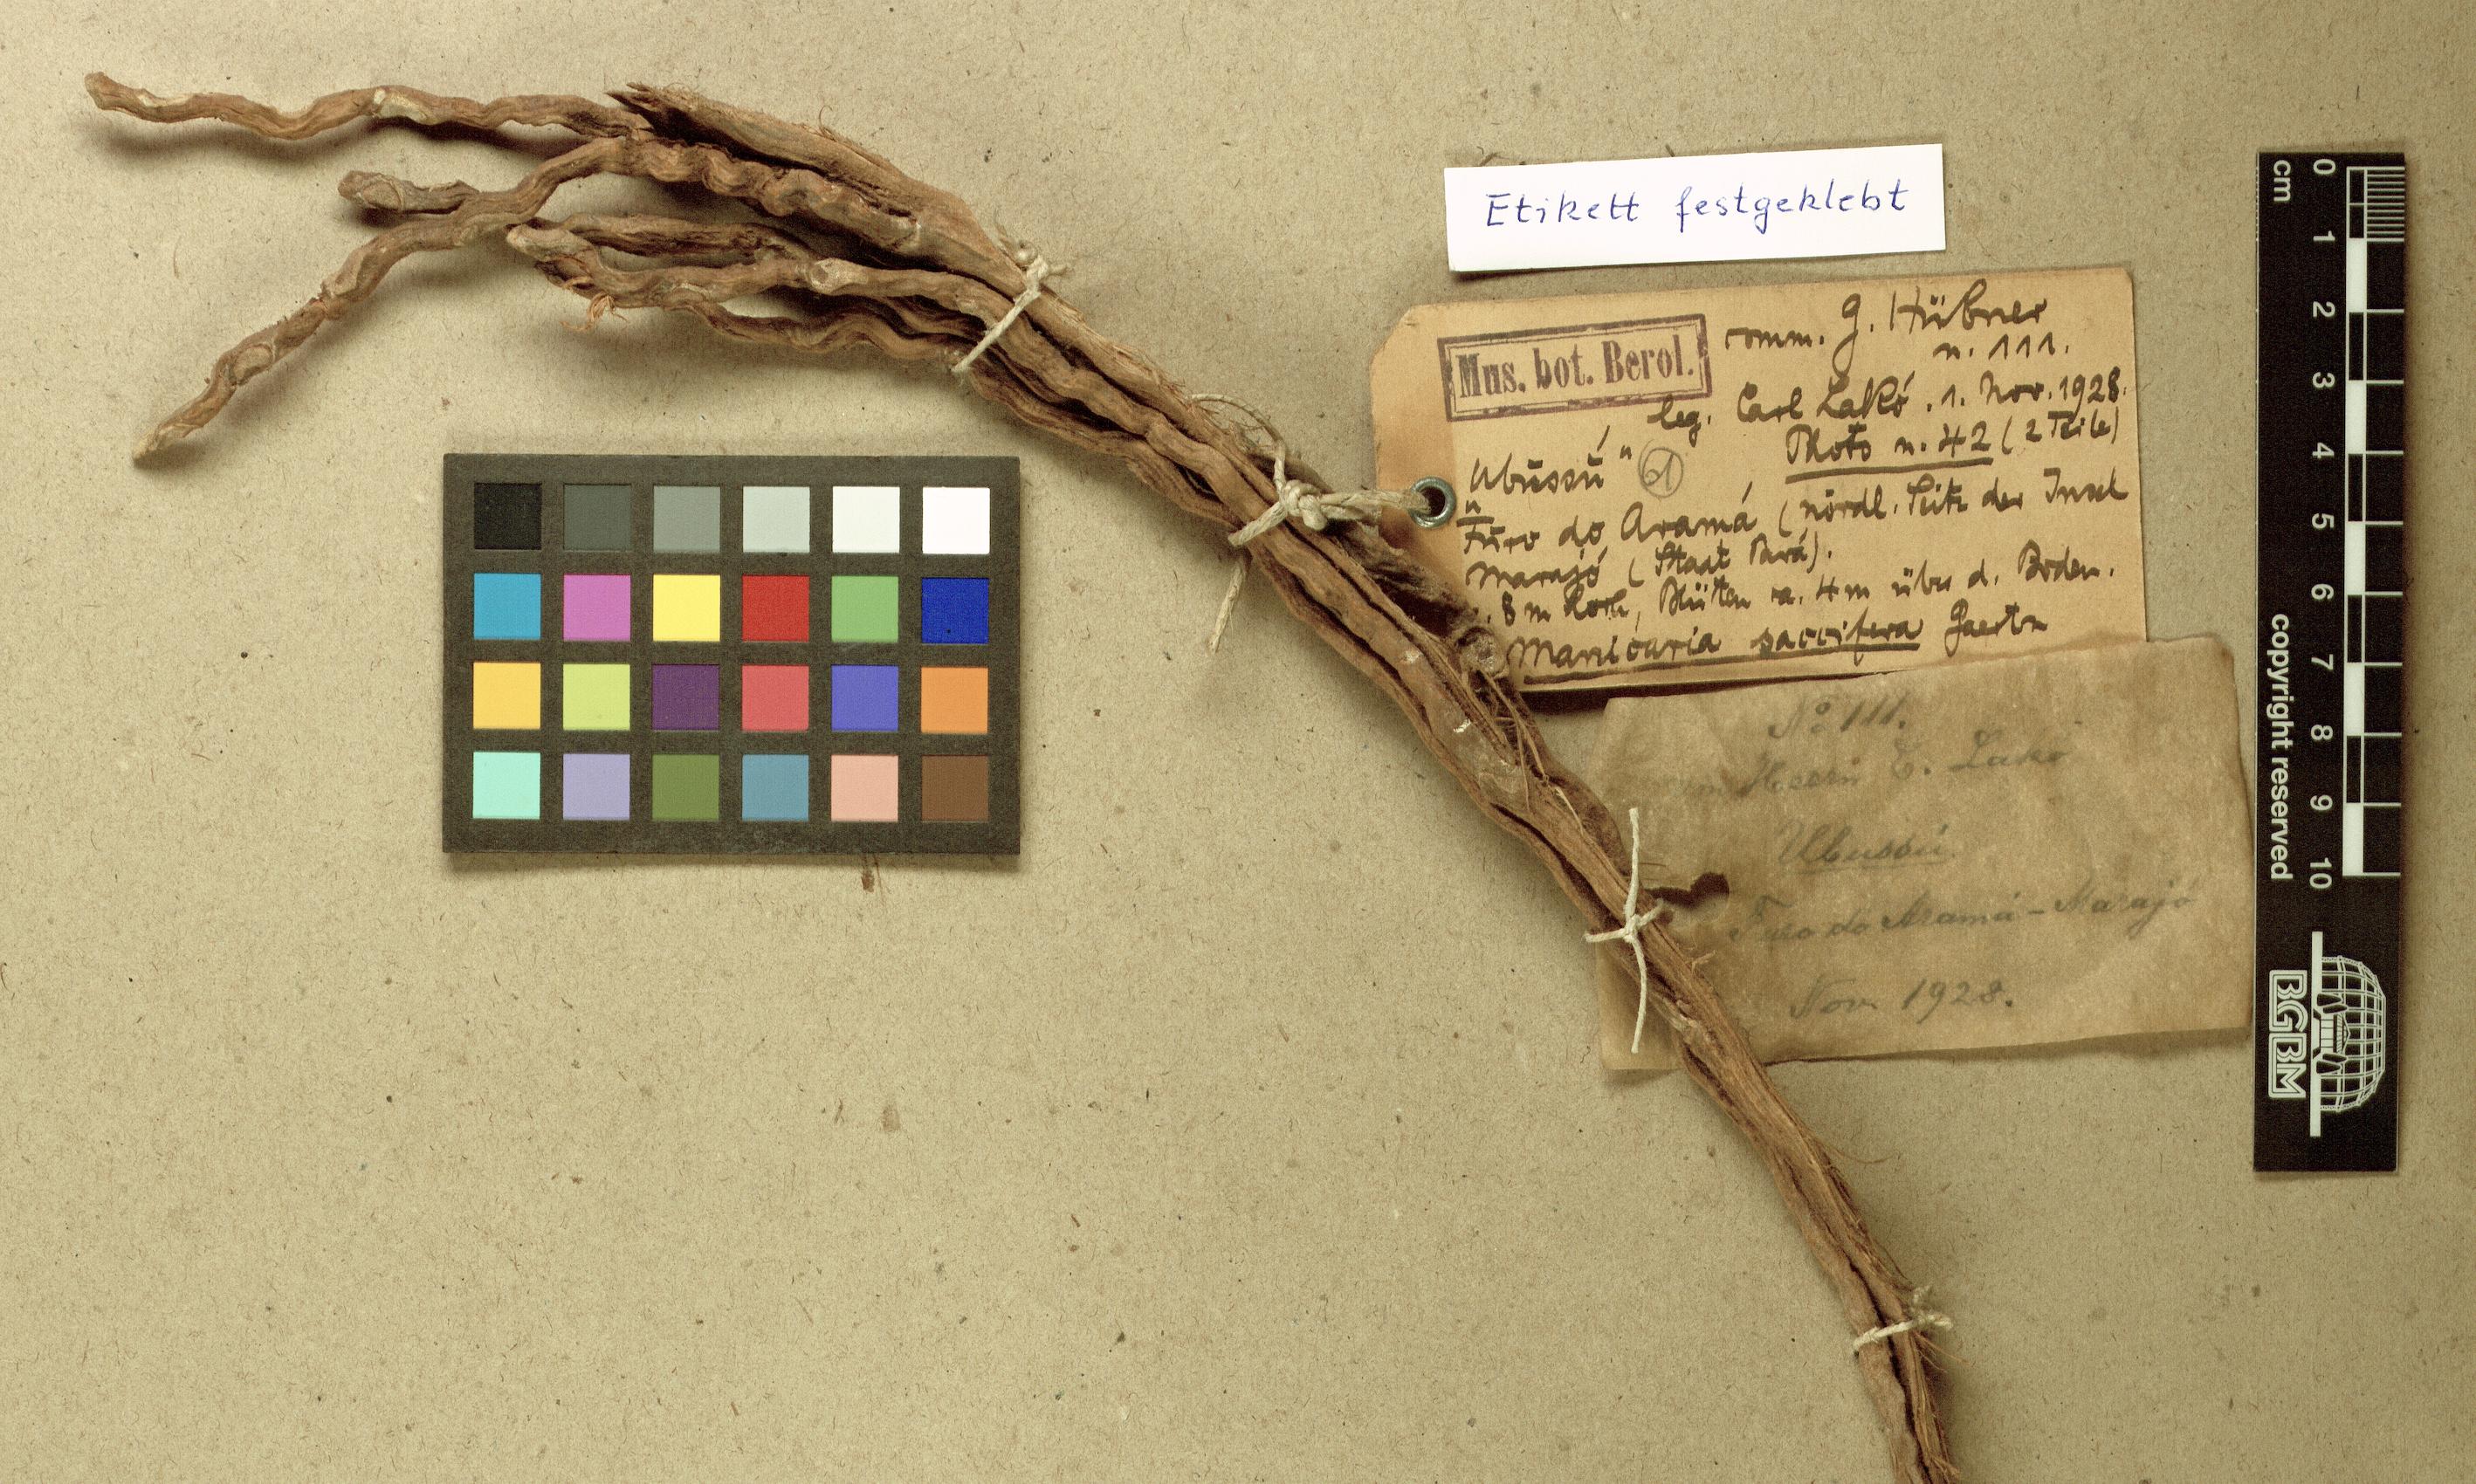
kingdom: Plantae
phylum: Tracheophyta
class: Liliopsida
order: Arecales
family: Arecaceae
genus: Manicaria
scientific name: Manicaria saccifera
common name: Sea coconut
